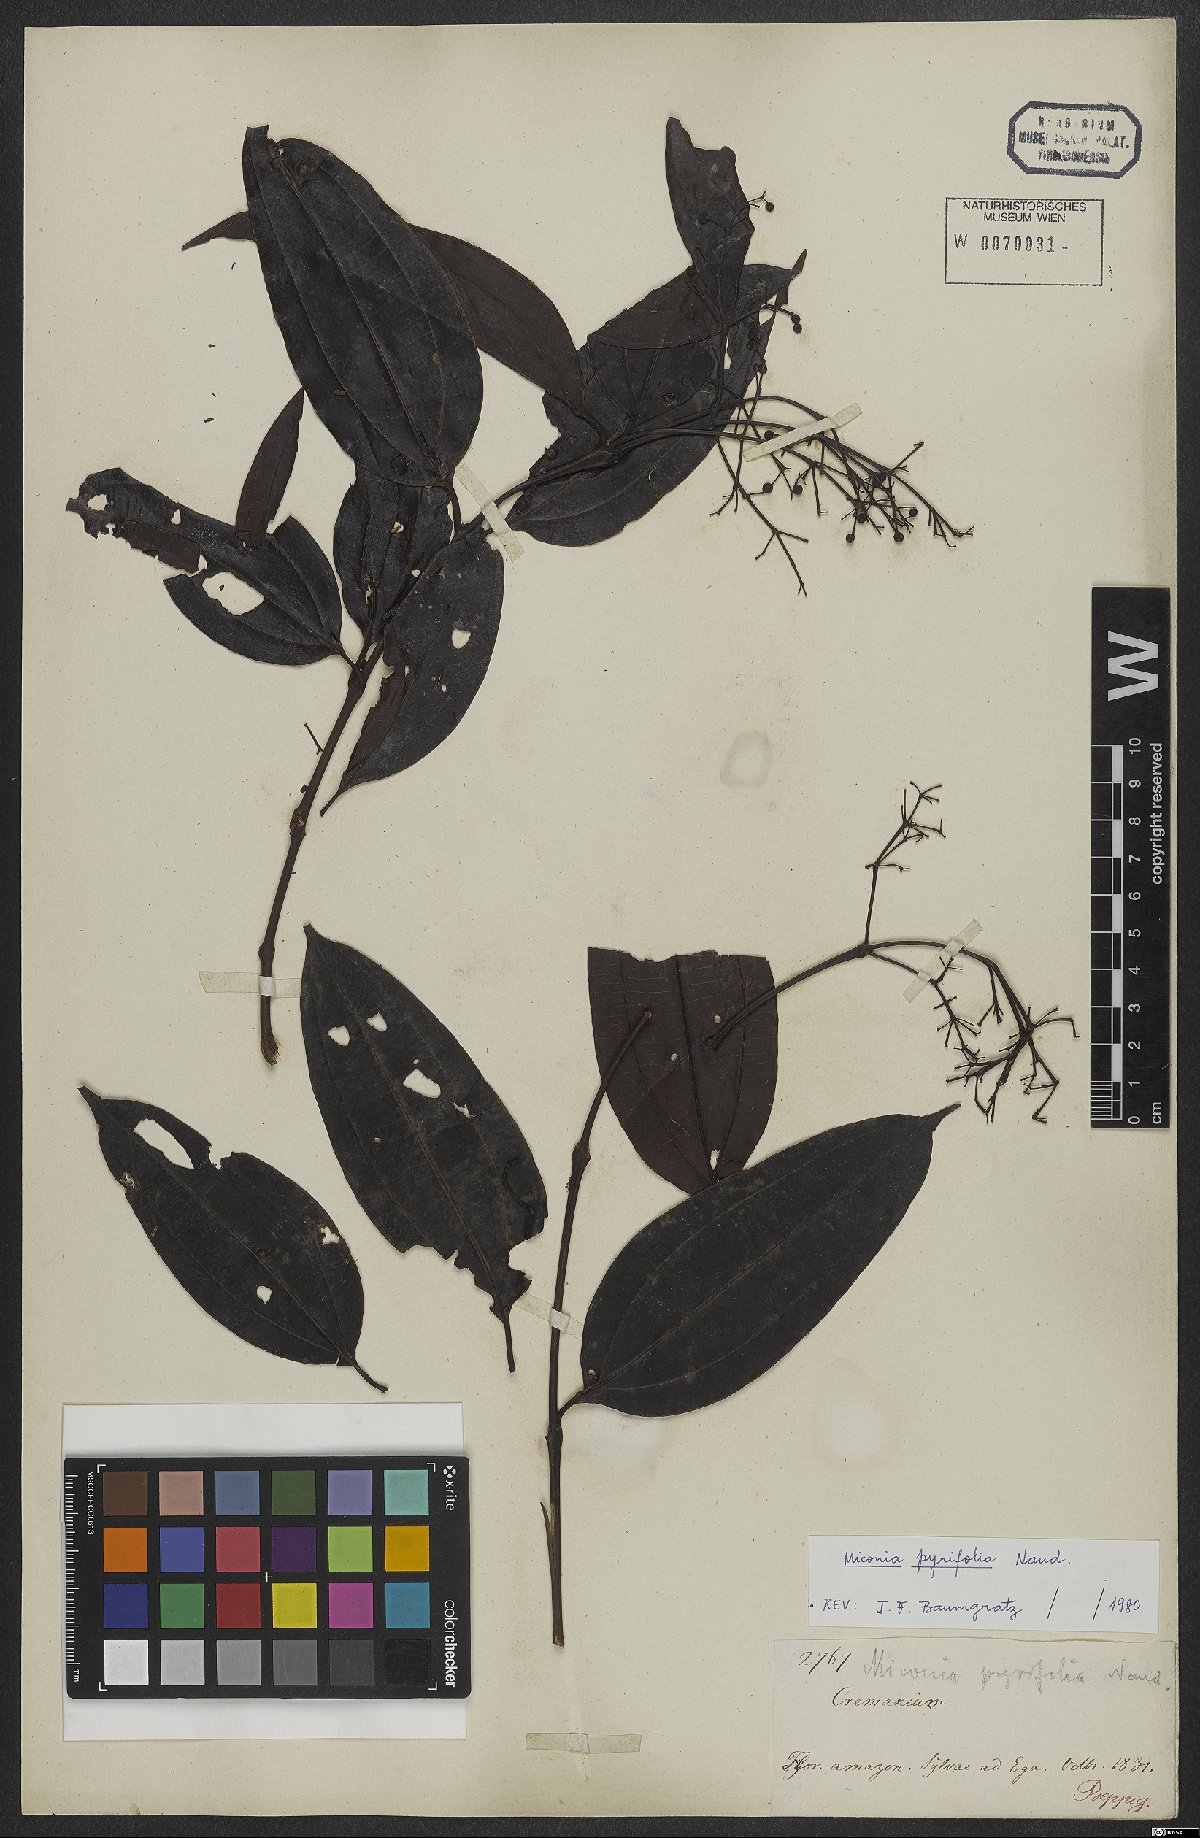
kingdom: Plantae
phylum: Tracheophyta
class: Magnoliopsida
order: Myrtales
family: Melastomataceae
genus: Miconia
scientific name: Miconia pyrifolia
